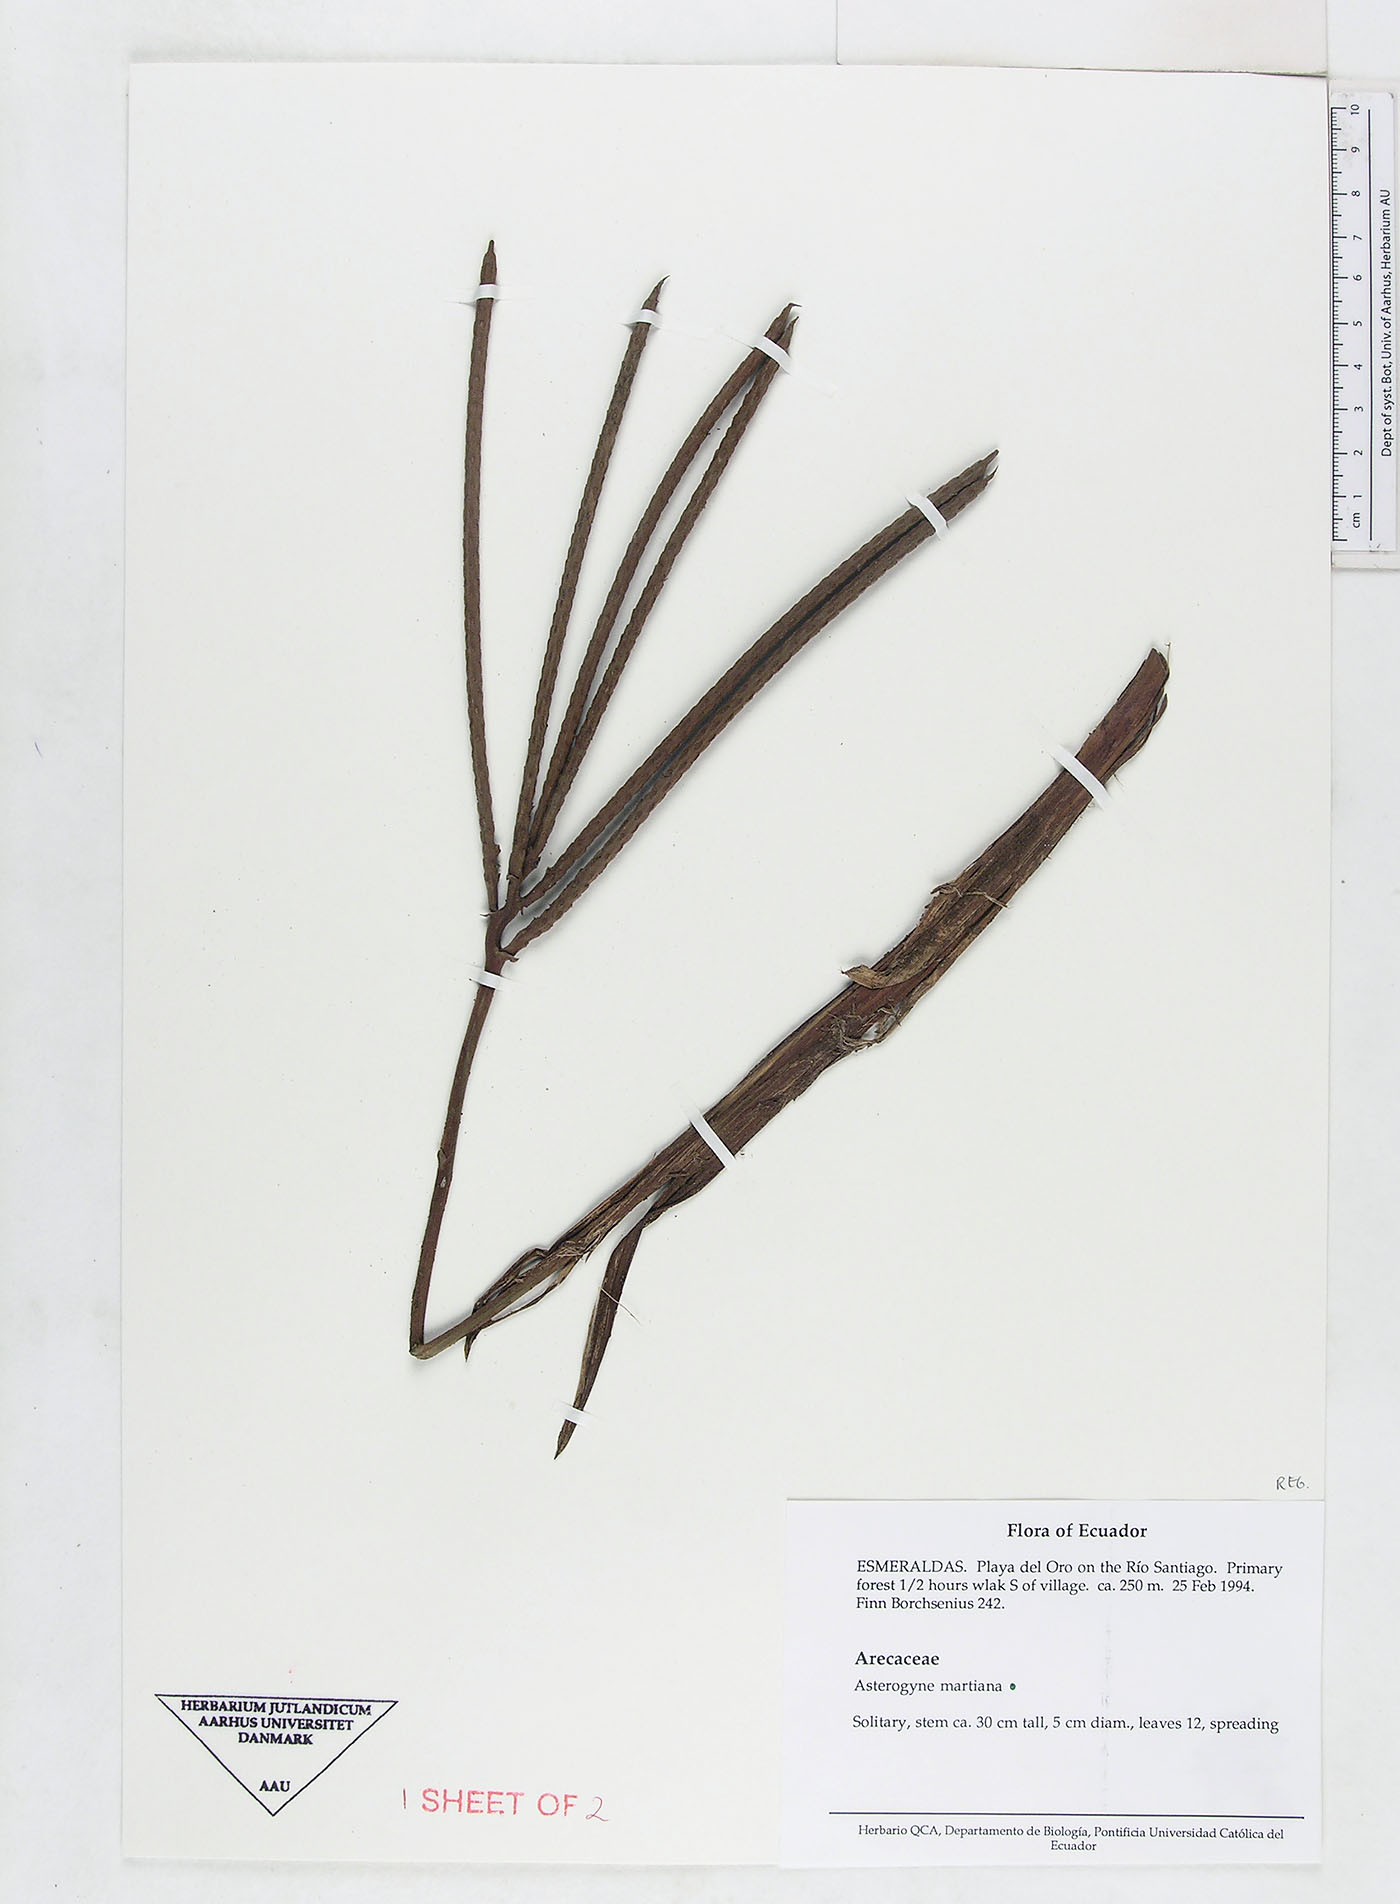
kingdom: Plantae
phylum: Tracheophyta
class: Liliopsida
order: Arecales
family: Arecaceae
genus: Asterogyne
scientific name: Asterogyne martiana
